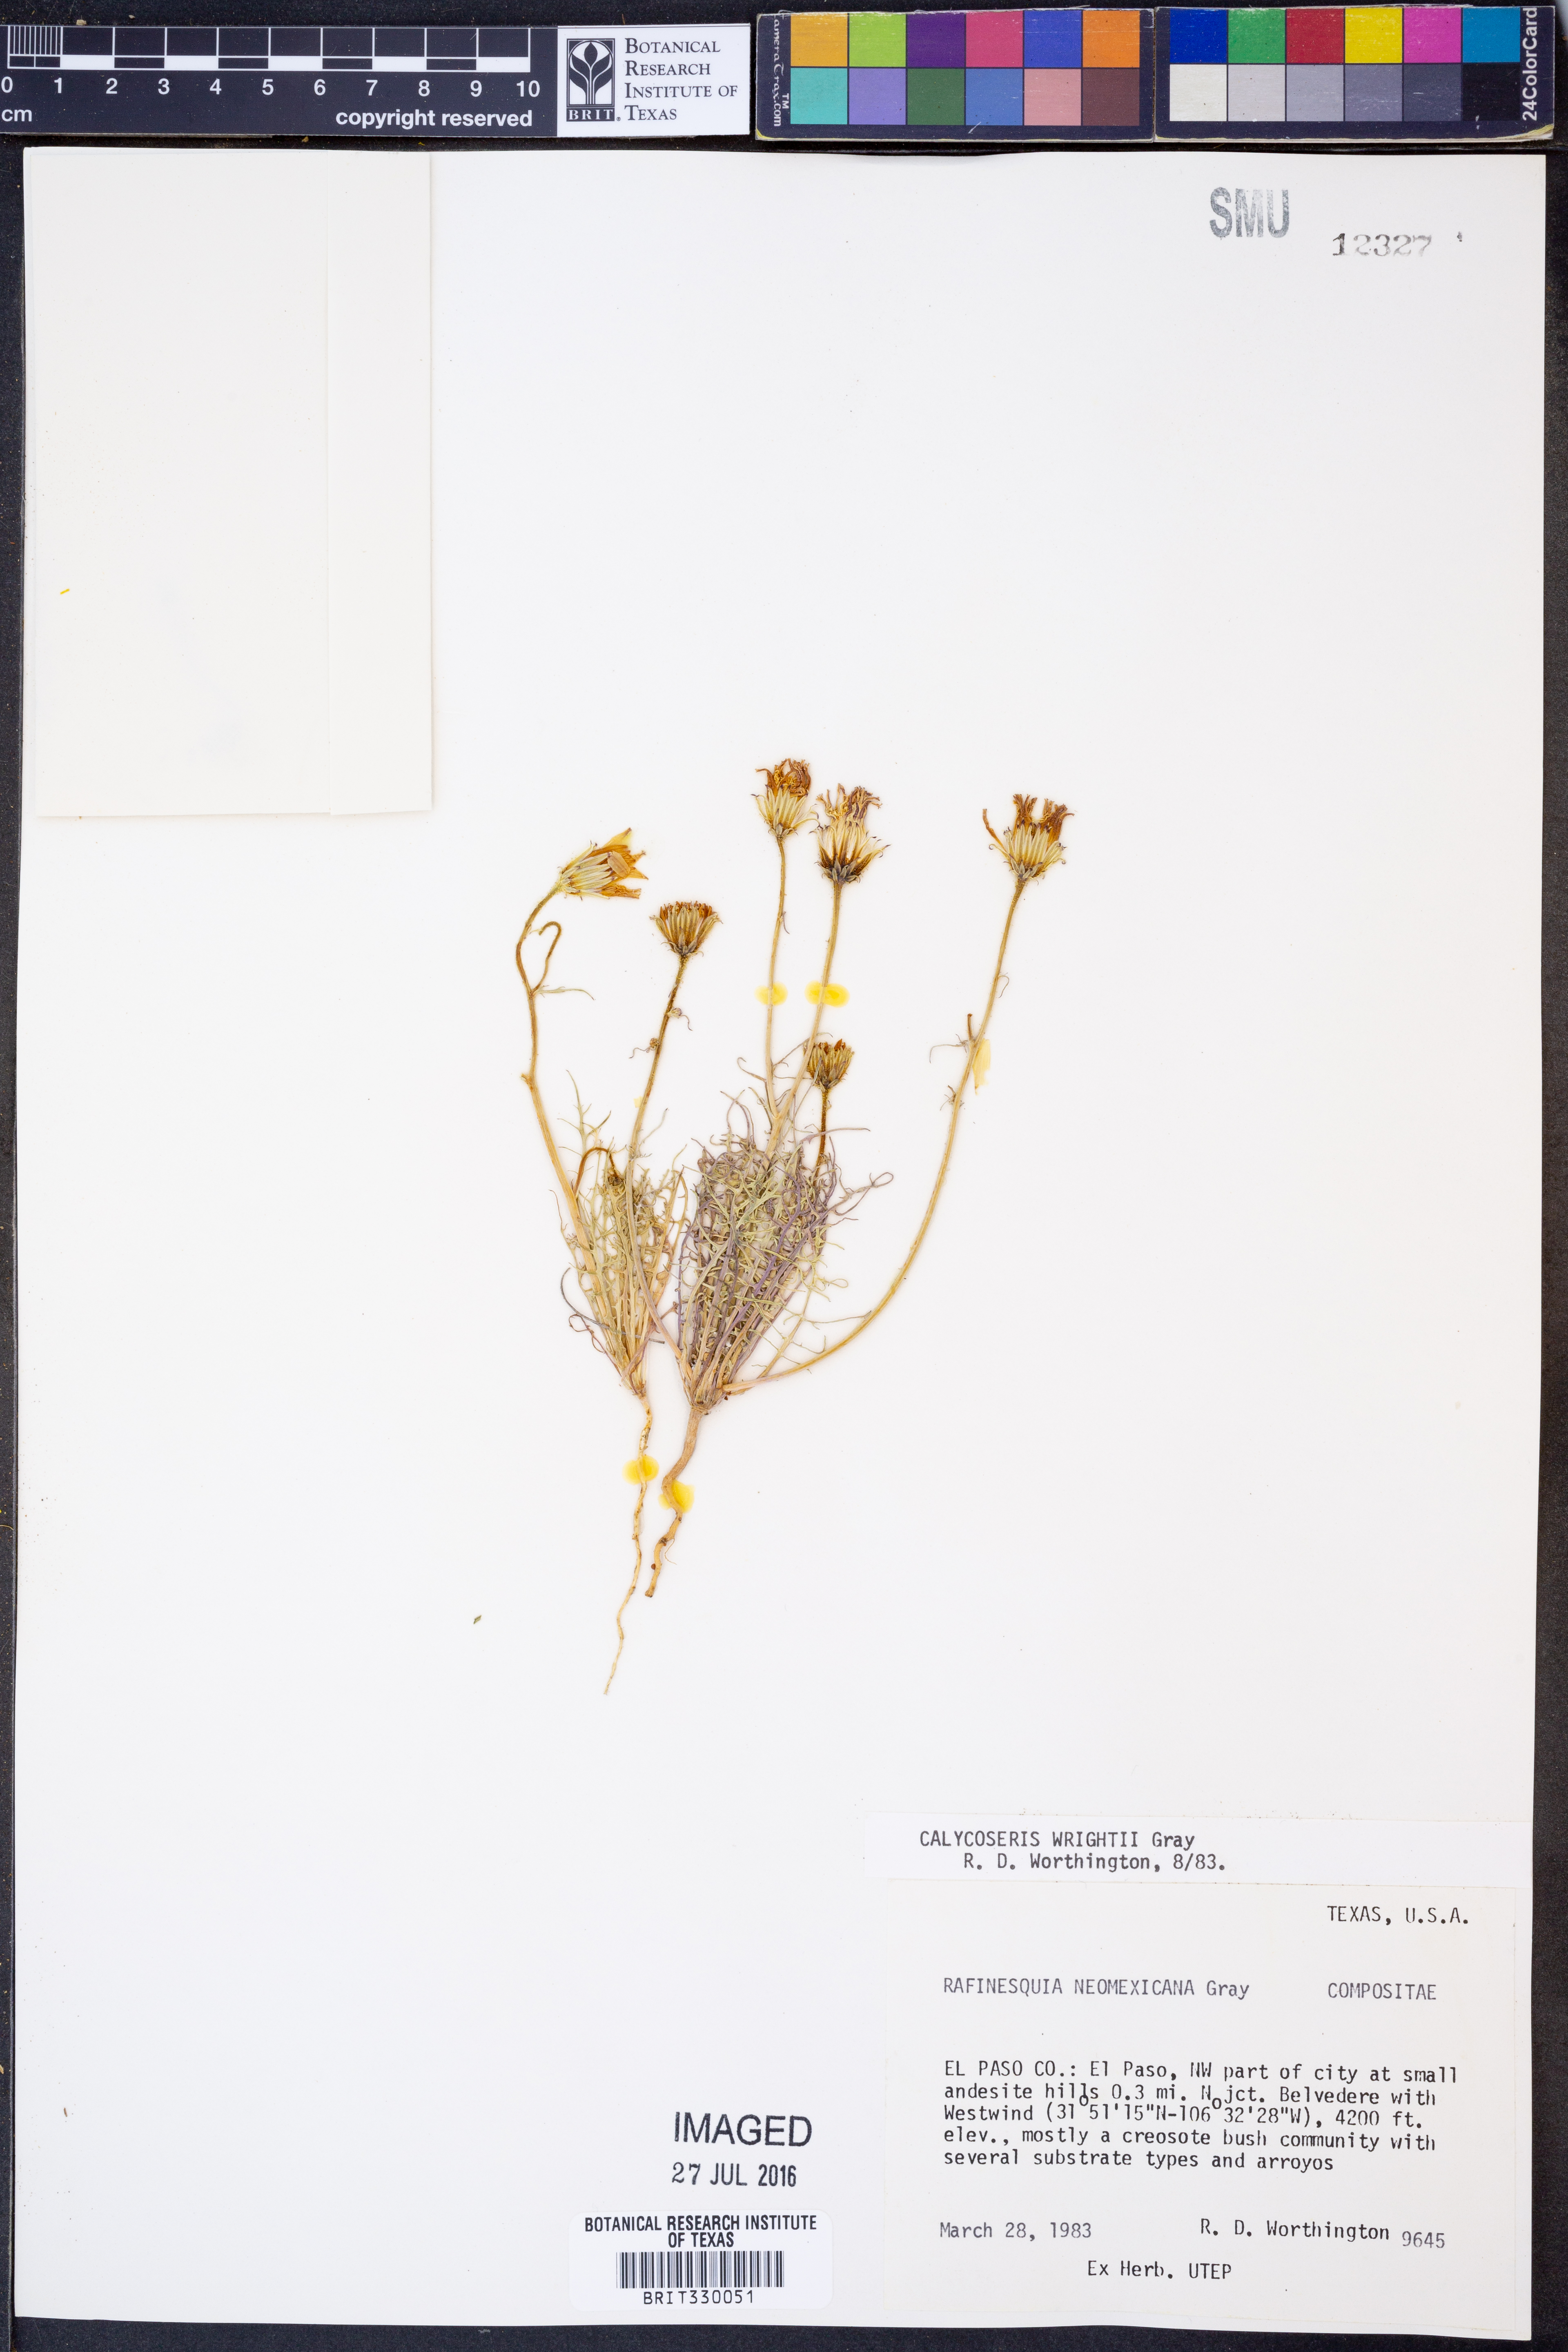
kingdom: Plantae
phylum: Tracheophyta
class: Magnoliopsida
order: Asterales
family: Asteraceae
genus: Calycoseris
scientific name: Calycoseris wrightii
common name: White tackstem
